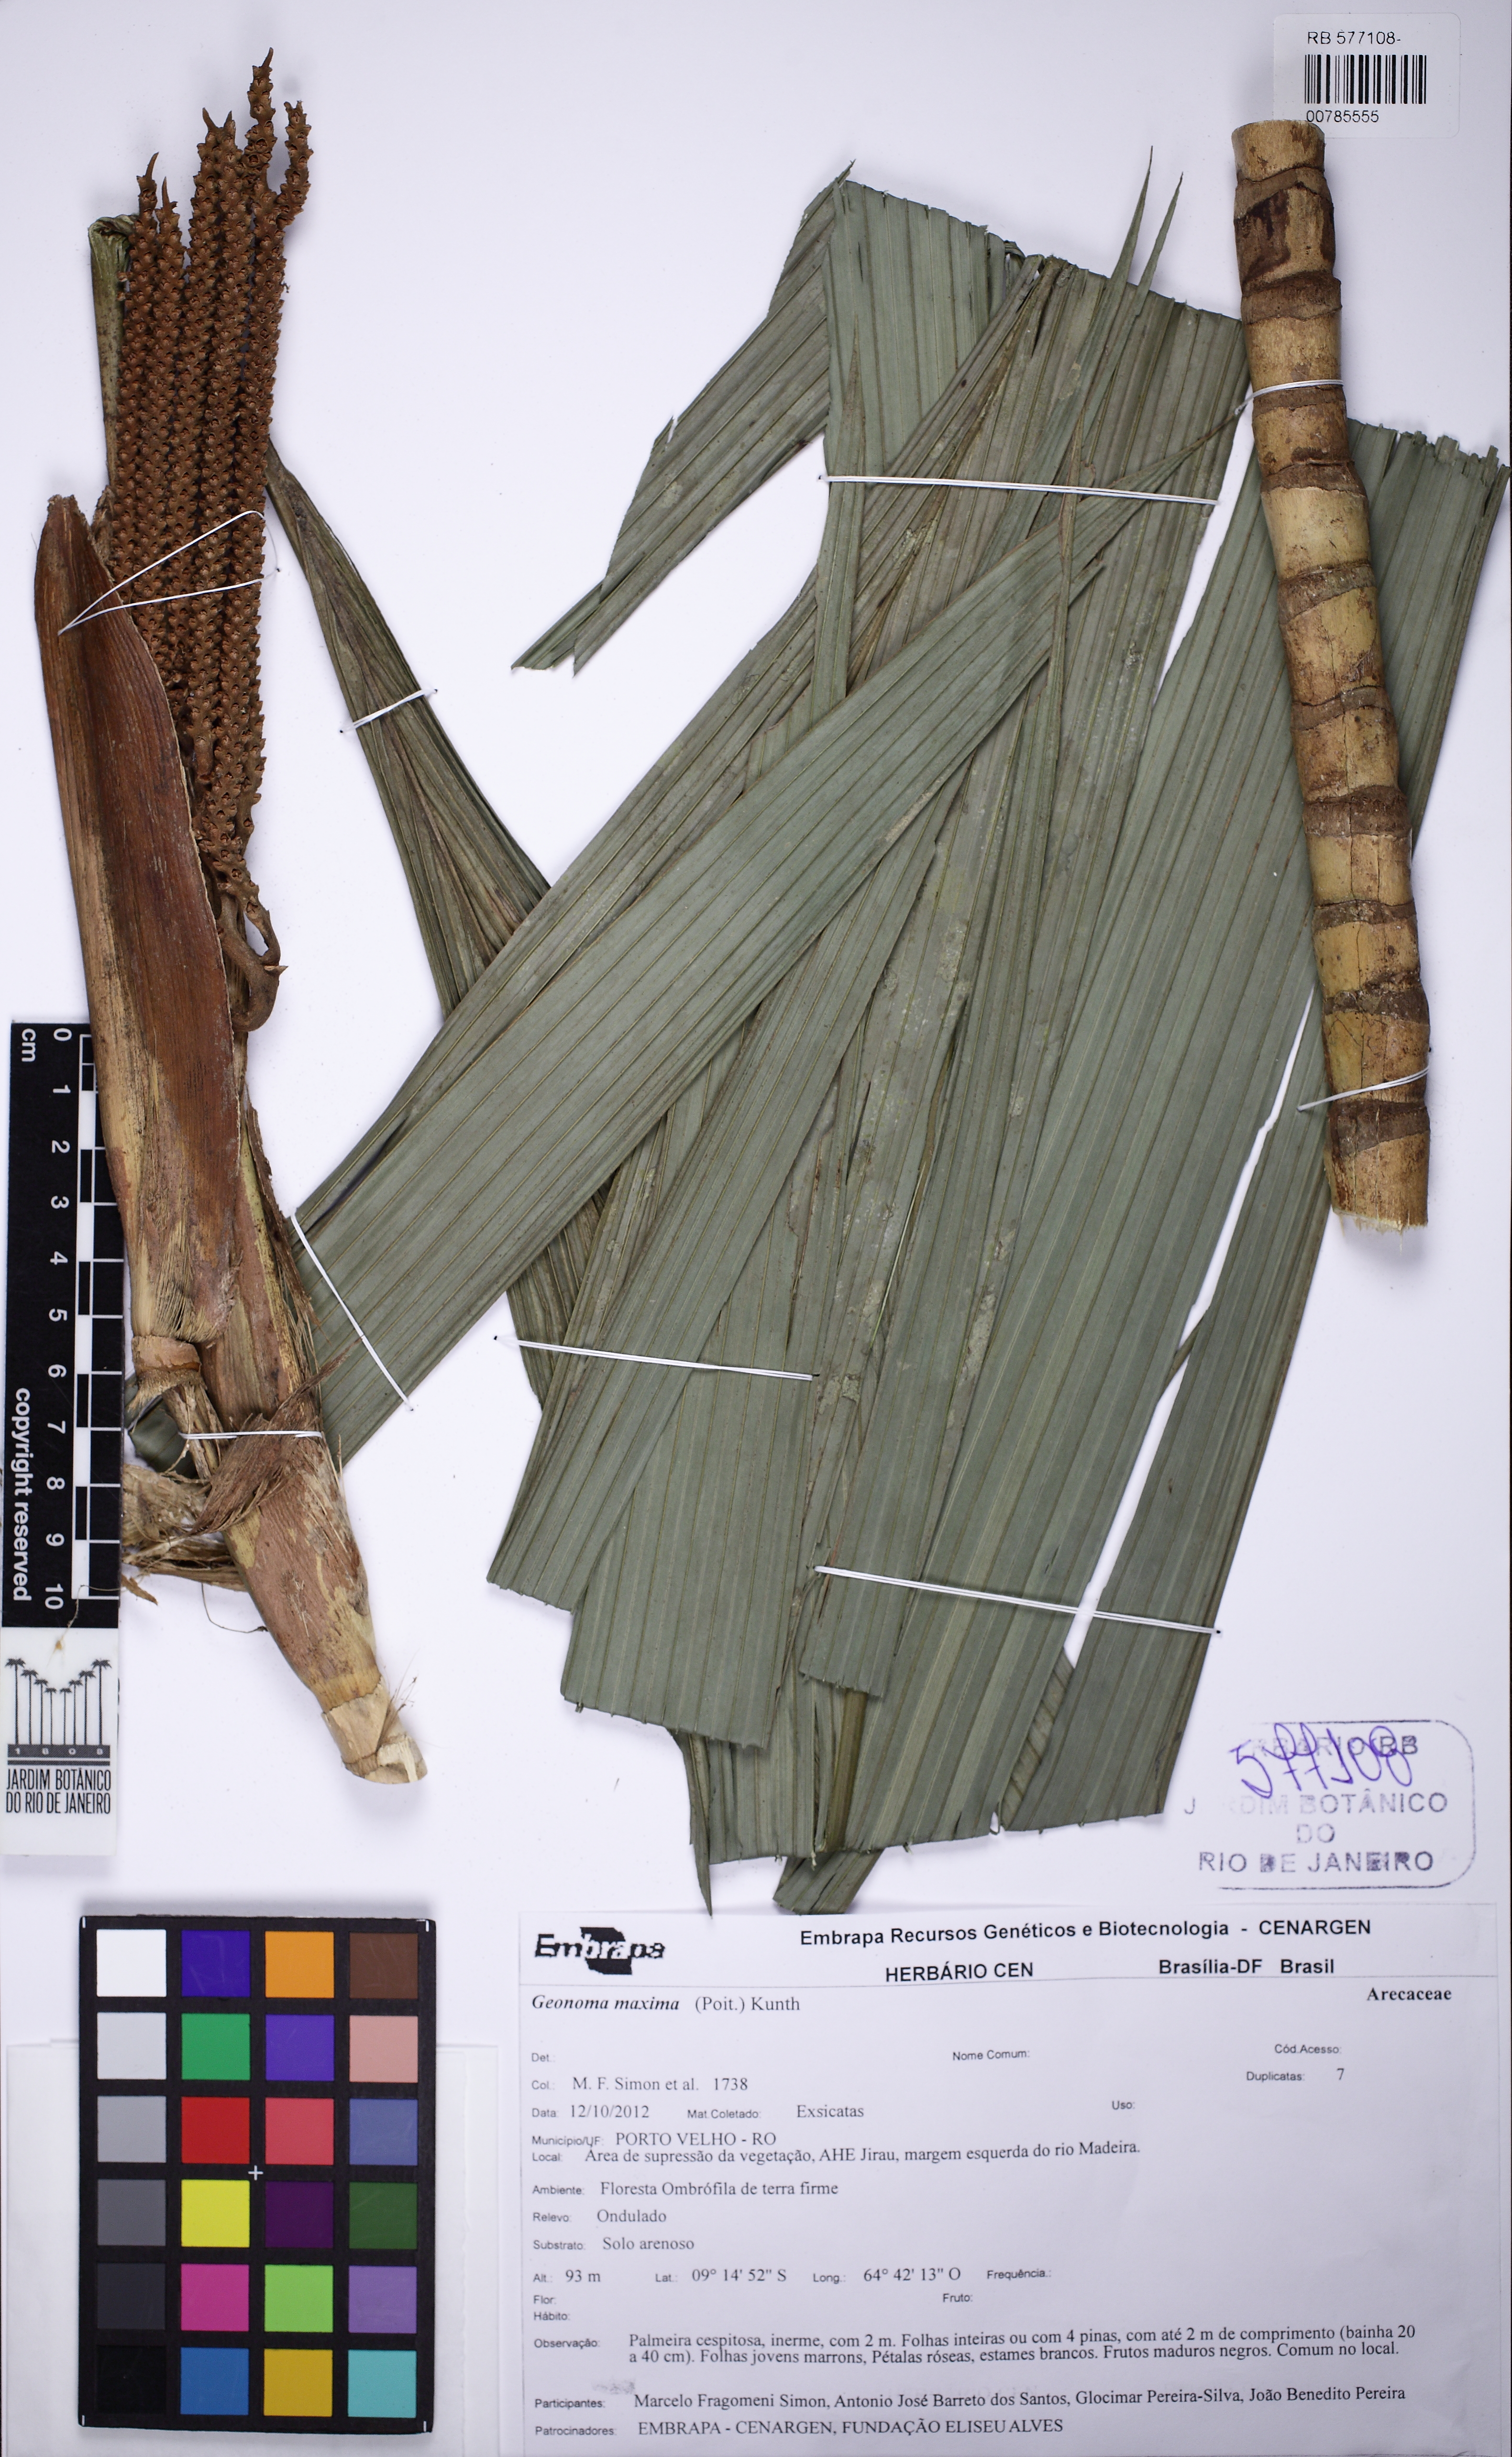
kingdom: Plantae
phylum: Tracheophyta
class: Liliopsida
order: Arecales
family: Arecaceae
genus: Geonoma
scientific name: Geonoma maxima
